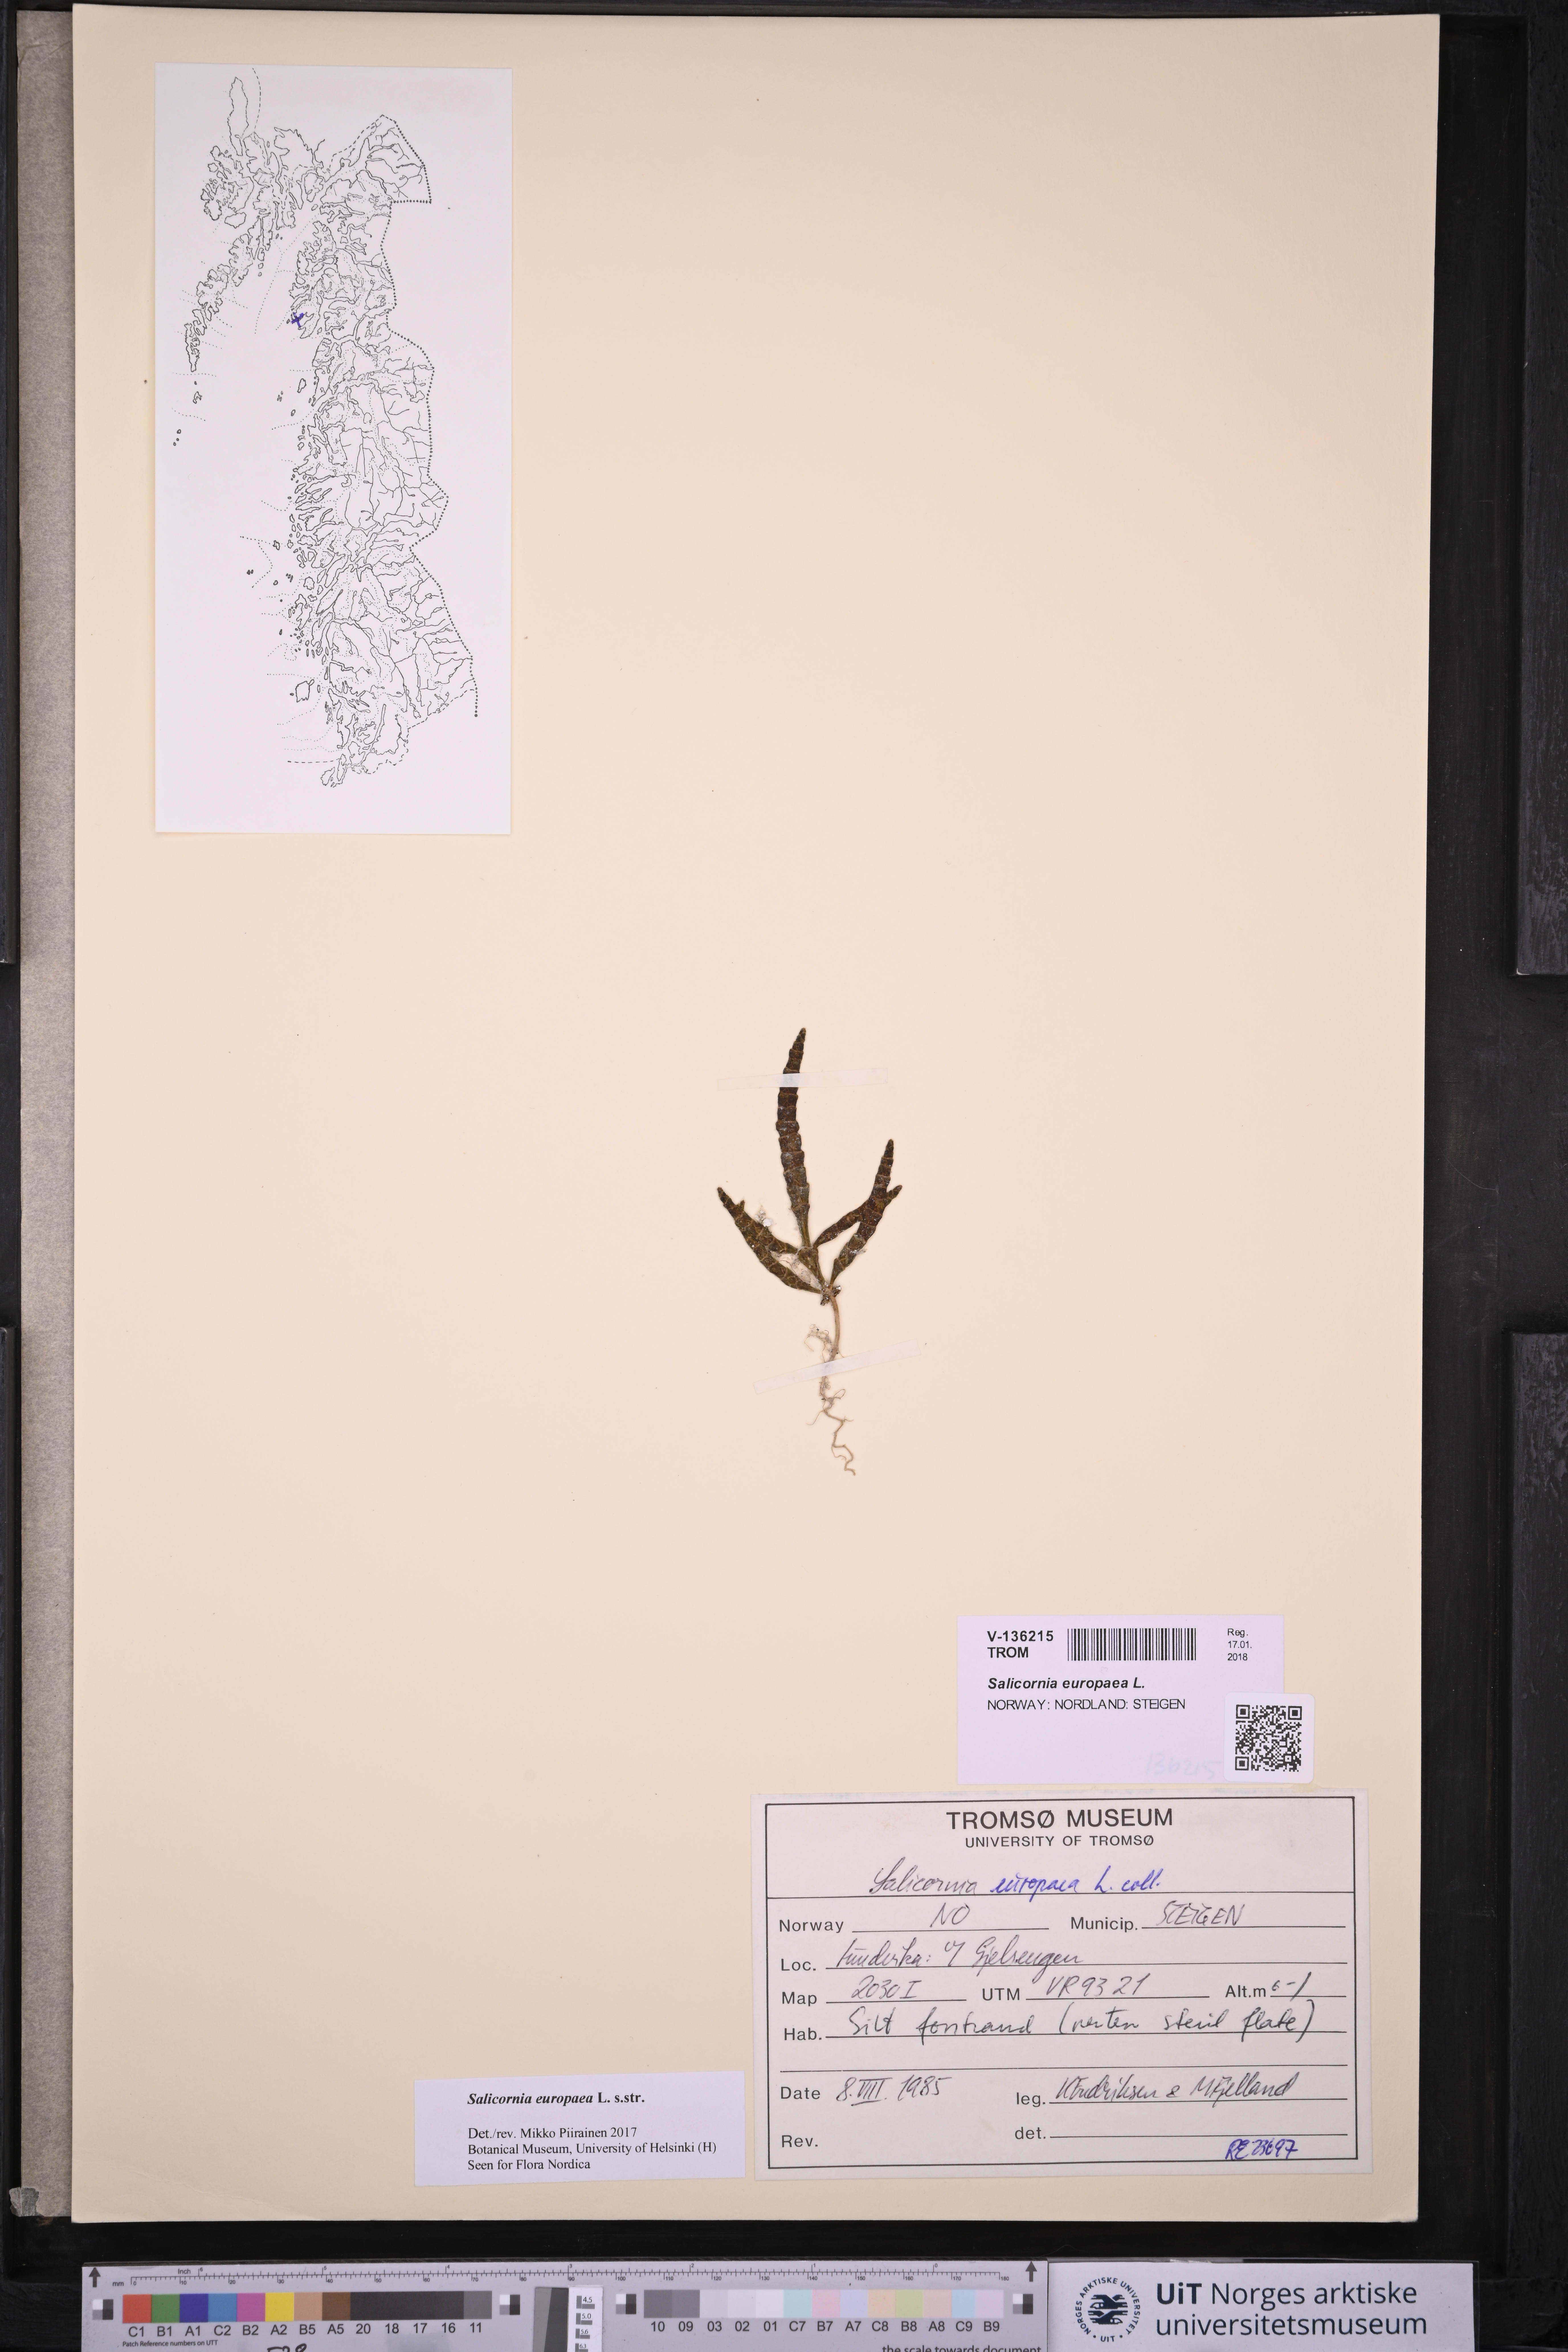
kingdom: Plantae
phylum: Tracheophyta
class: Magnoliopsida
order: Caryophyllales
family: Amaranthaceae
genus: Salicornia
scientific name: Salicornia europaea
